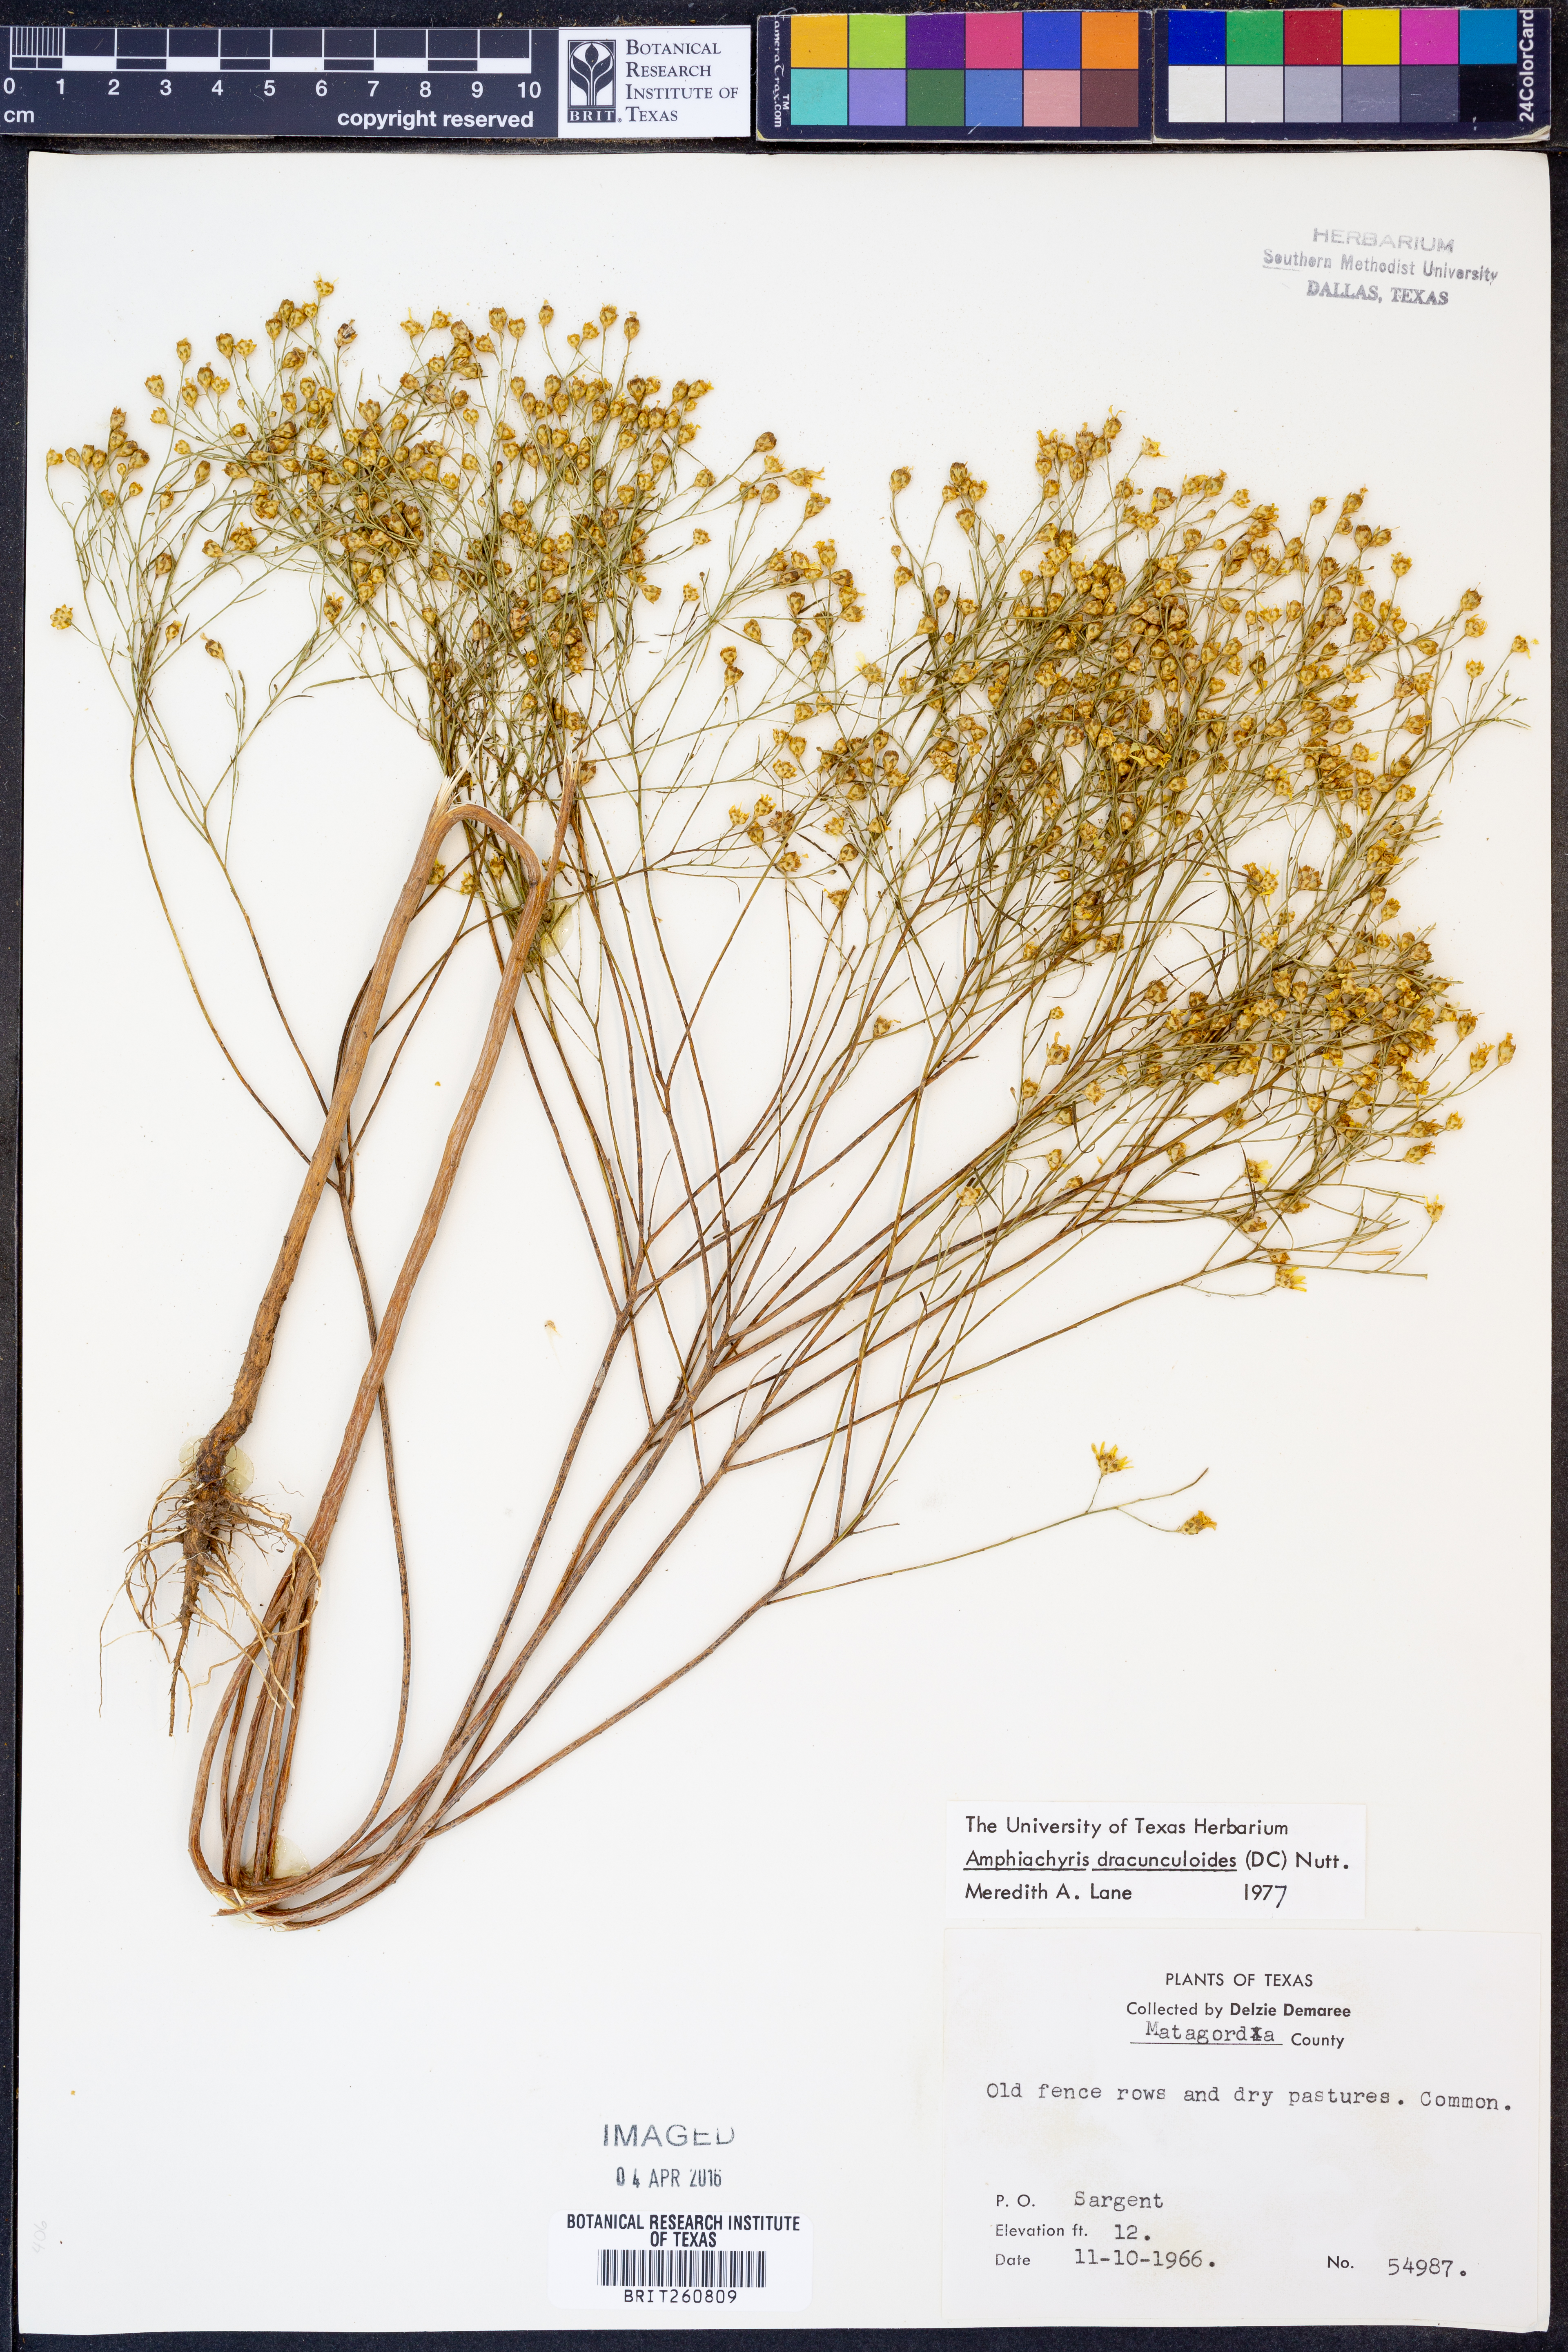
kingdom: Plantae
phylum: Tracheophyta
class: Magnoliopsida
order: Asterales
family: Asteraceae
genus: Amphiachyris
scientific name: Amphiachyris dracunculoides
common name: Broomweed
